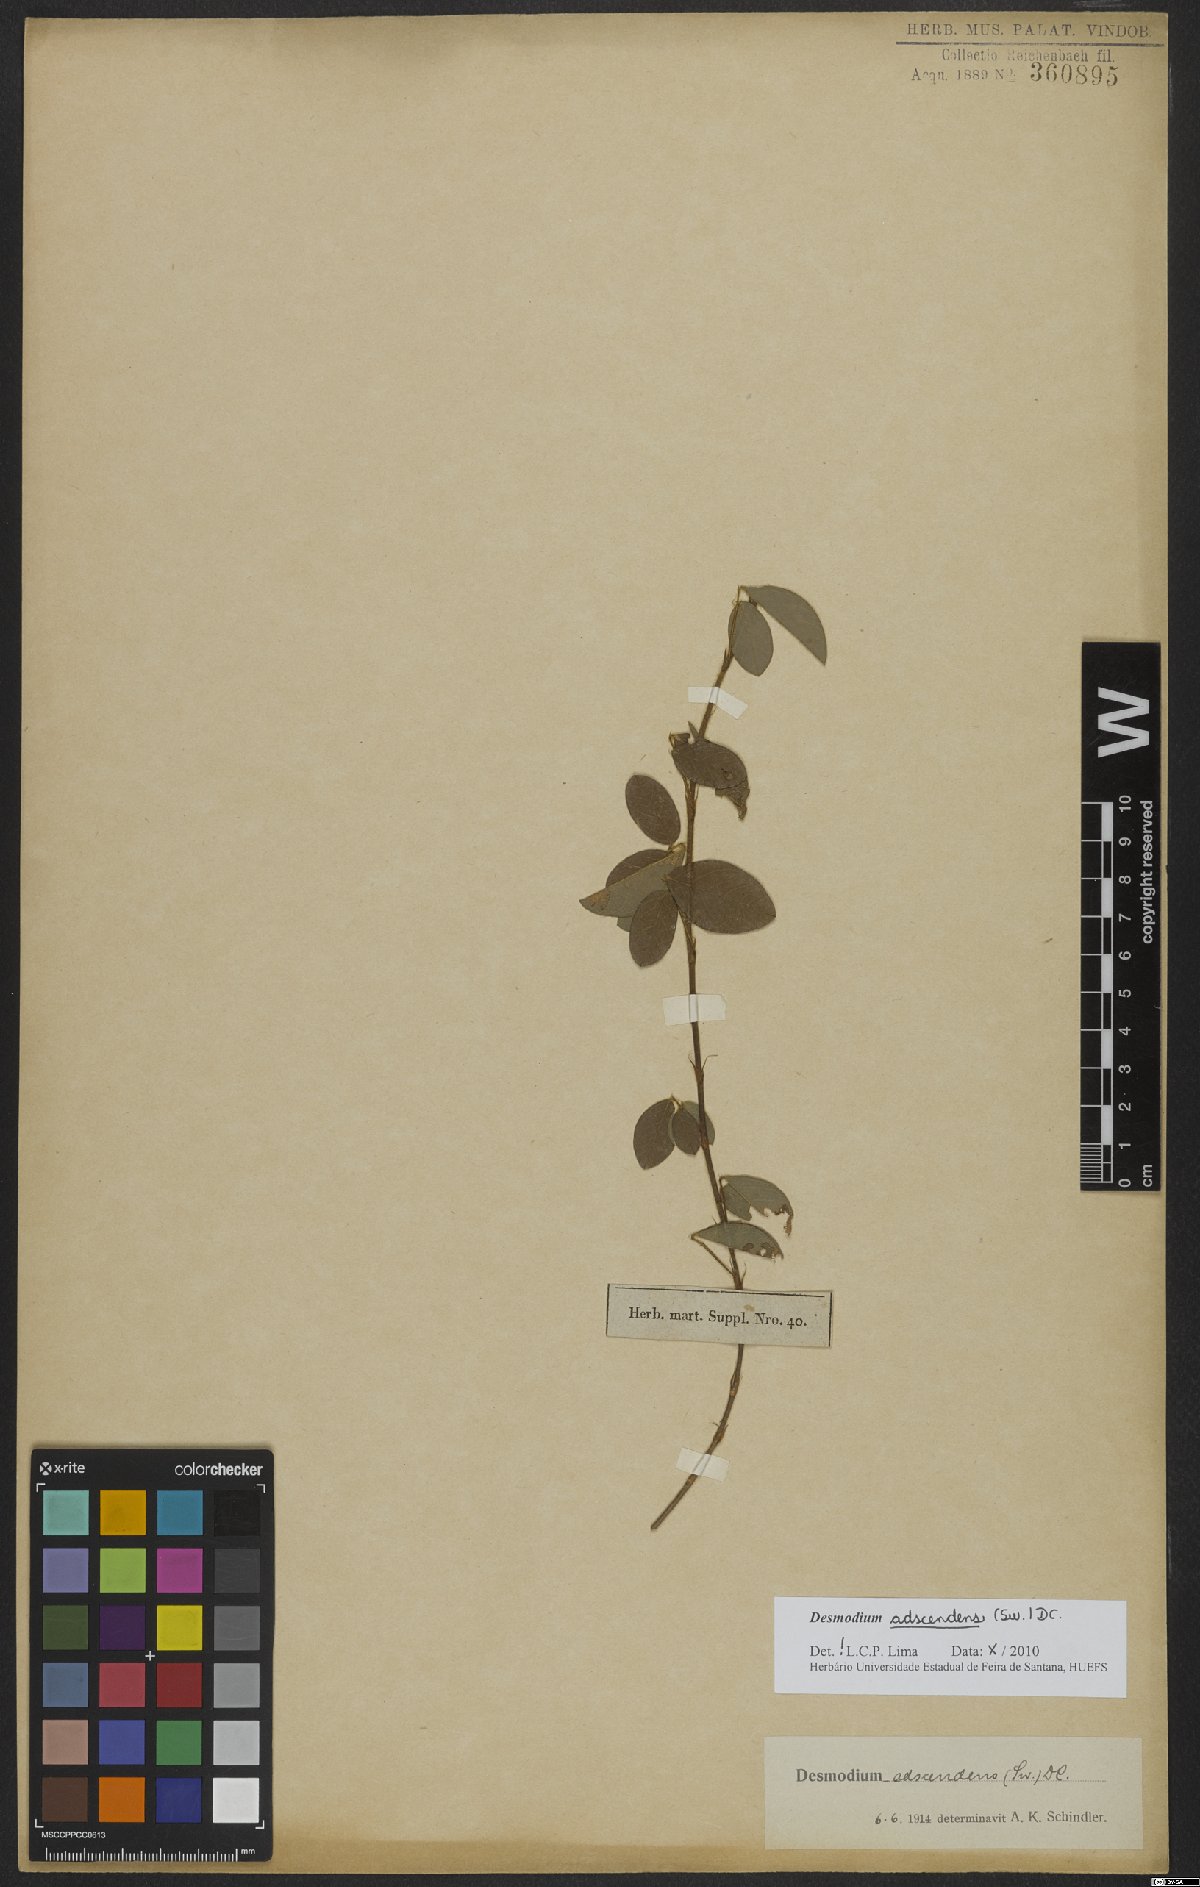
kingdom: Plantae
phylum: Tracheophyta
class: Magnoliopsida
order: Fabales
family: Fabaceae
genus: Grona
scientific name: Grona adscendens
